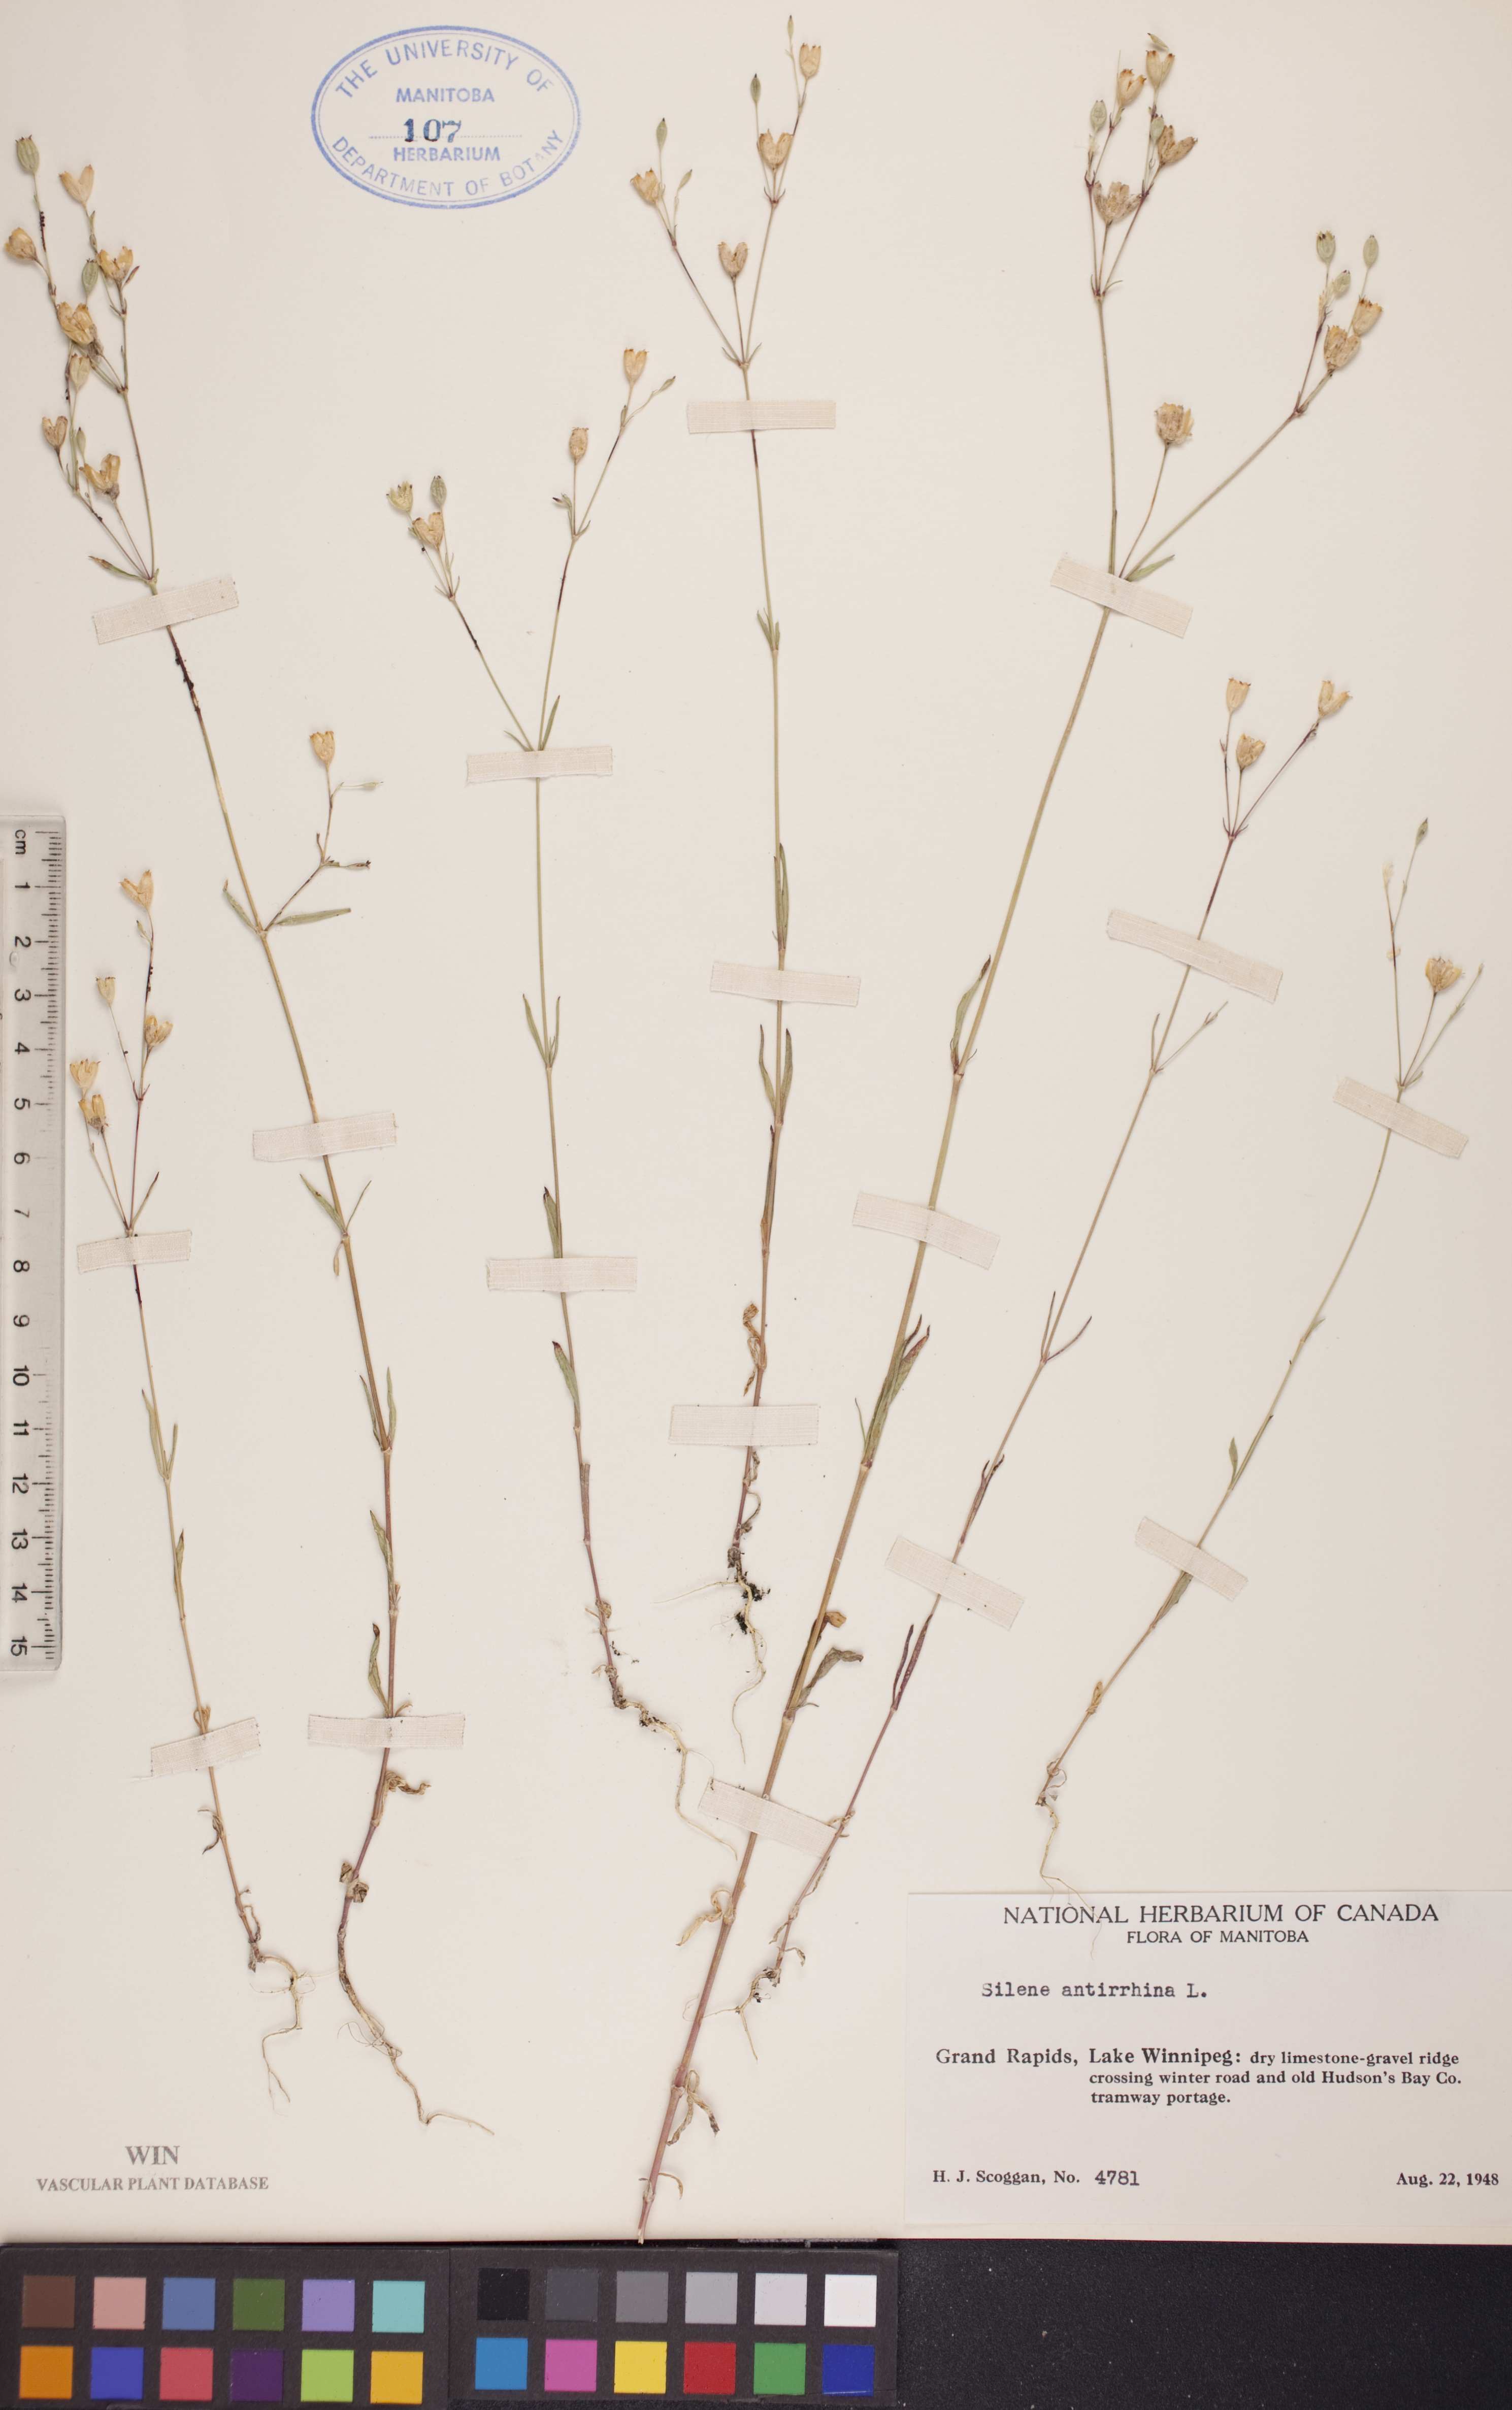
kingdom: Plantae
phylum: Tracheophyta
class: Magnoliopsida
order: Caryophyllales
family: Caryophyllaceae
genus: Silene
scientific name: Silene antirrhina
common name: Sleepy catchfly
